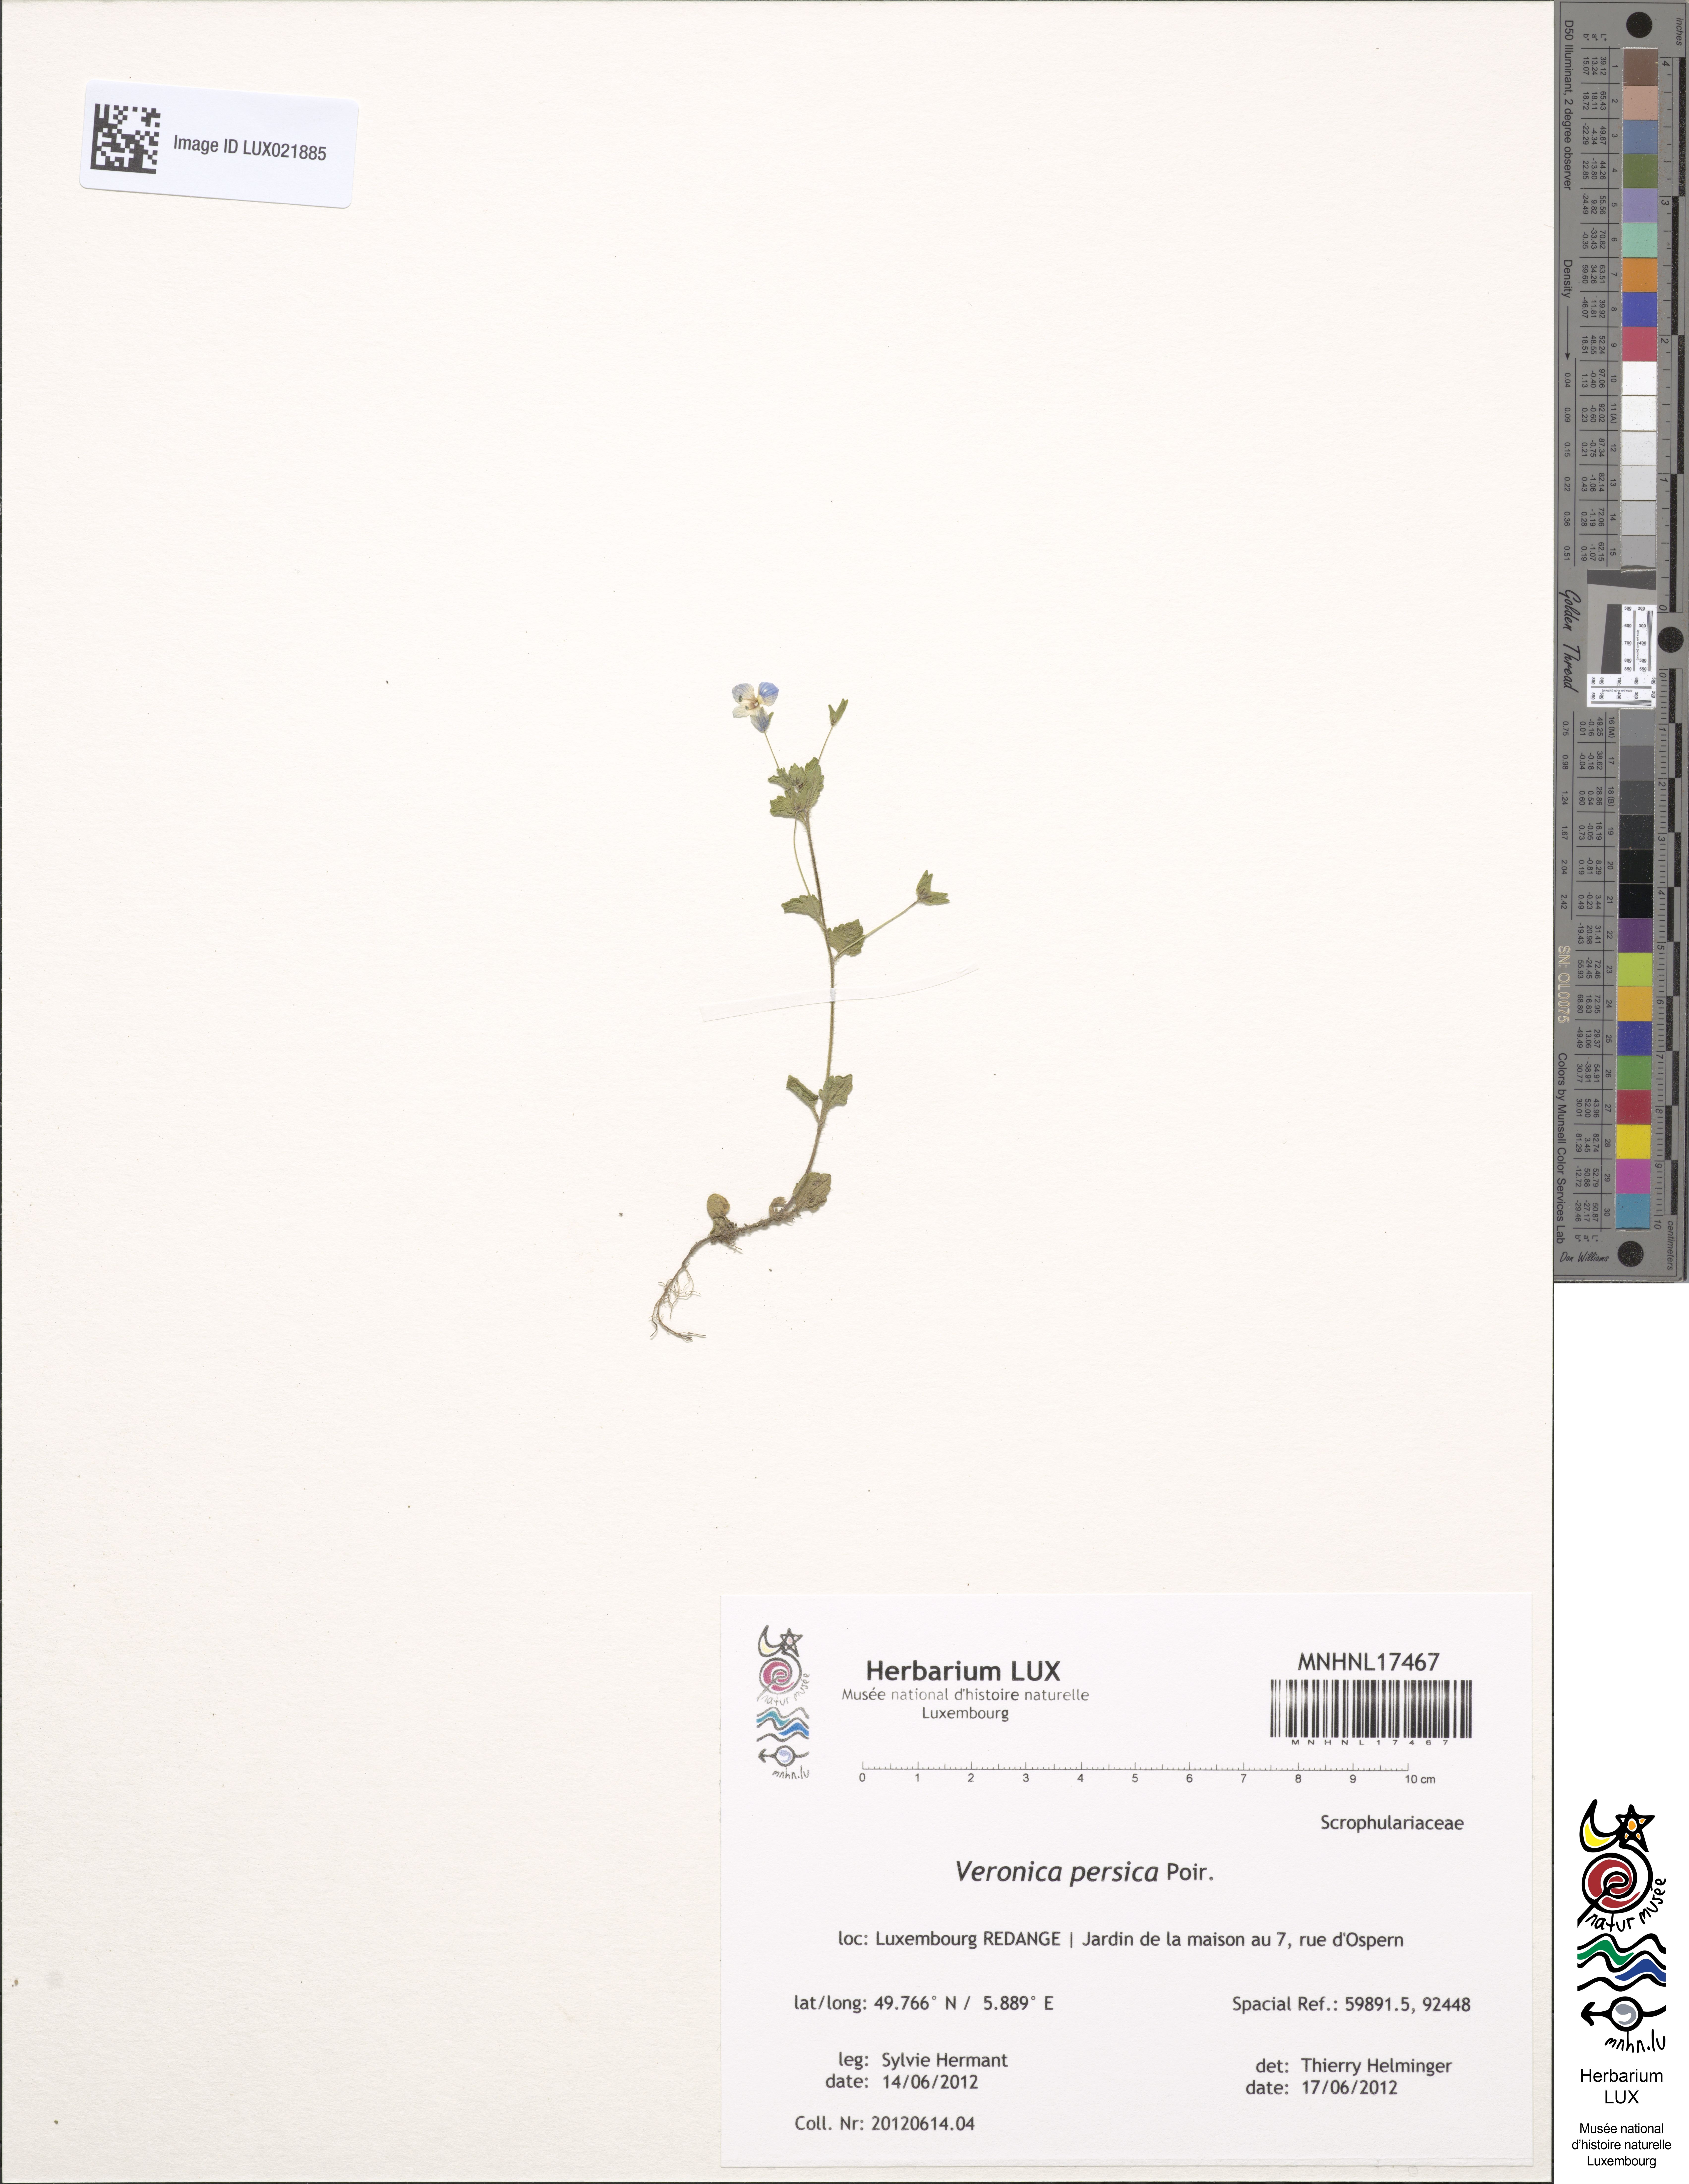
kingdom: Plantae
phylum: Tracheophyta
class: Magnoliopsida
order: Lamiales
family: Plantaginaceae
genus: Veronica
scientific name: Veronica persica
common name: Common field-speedwell
